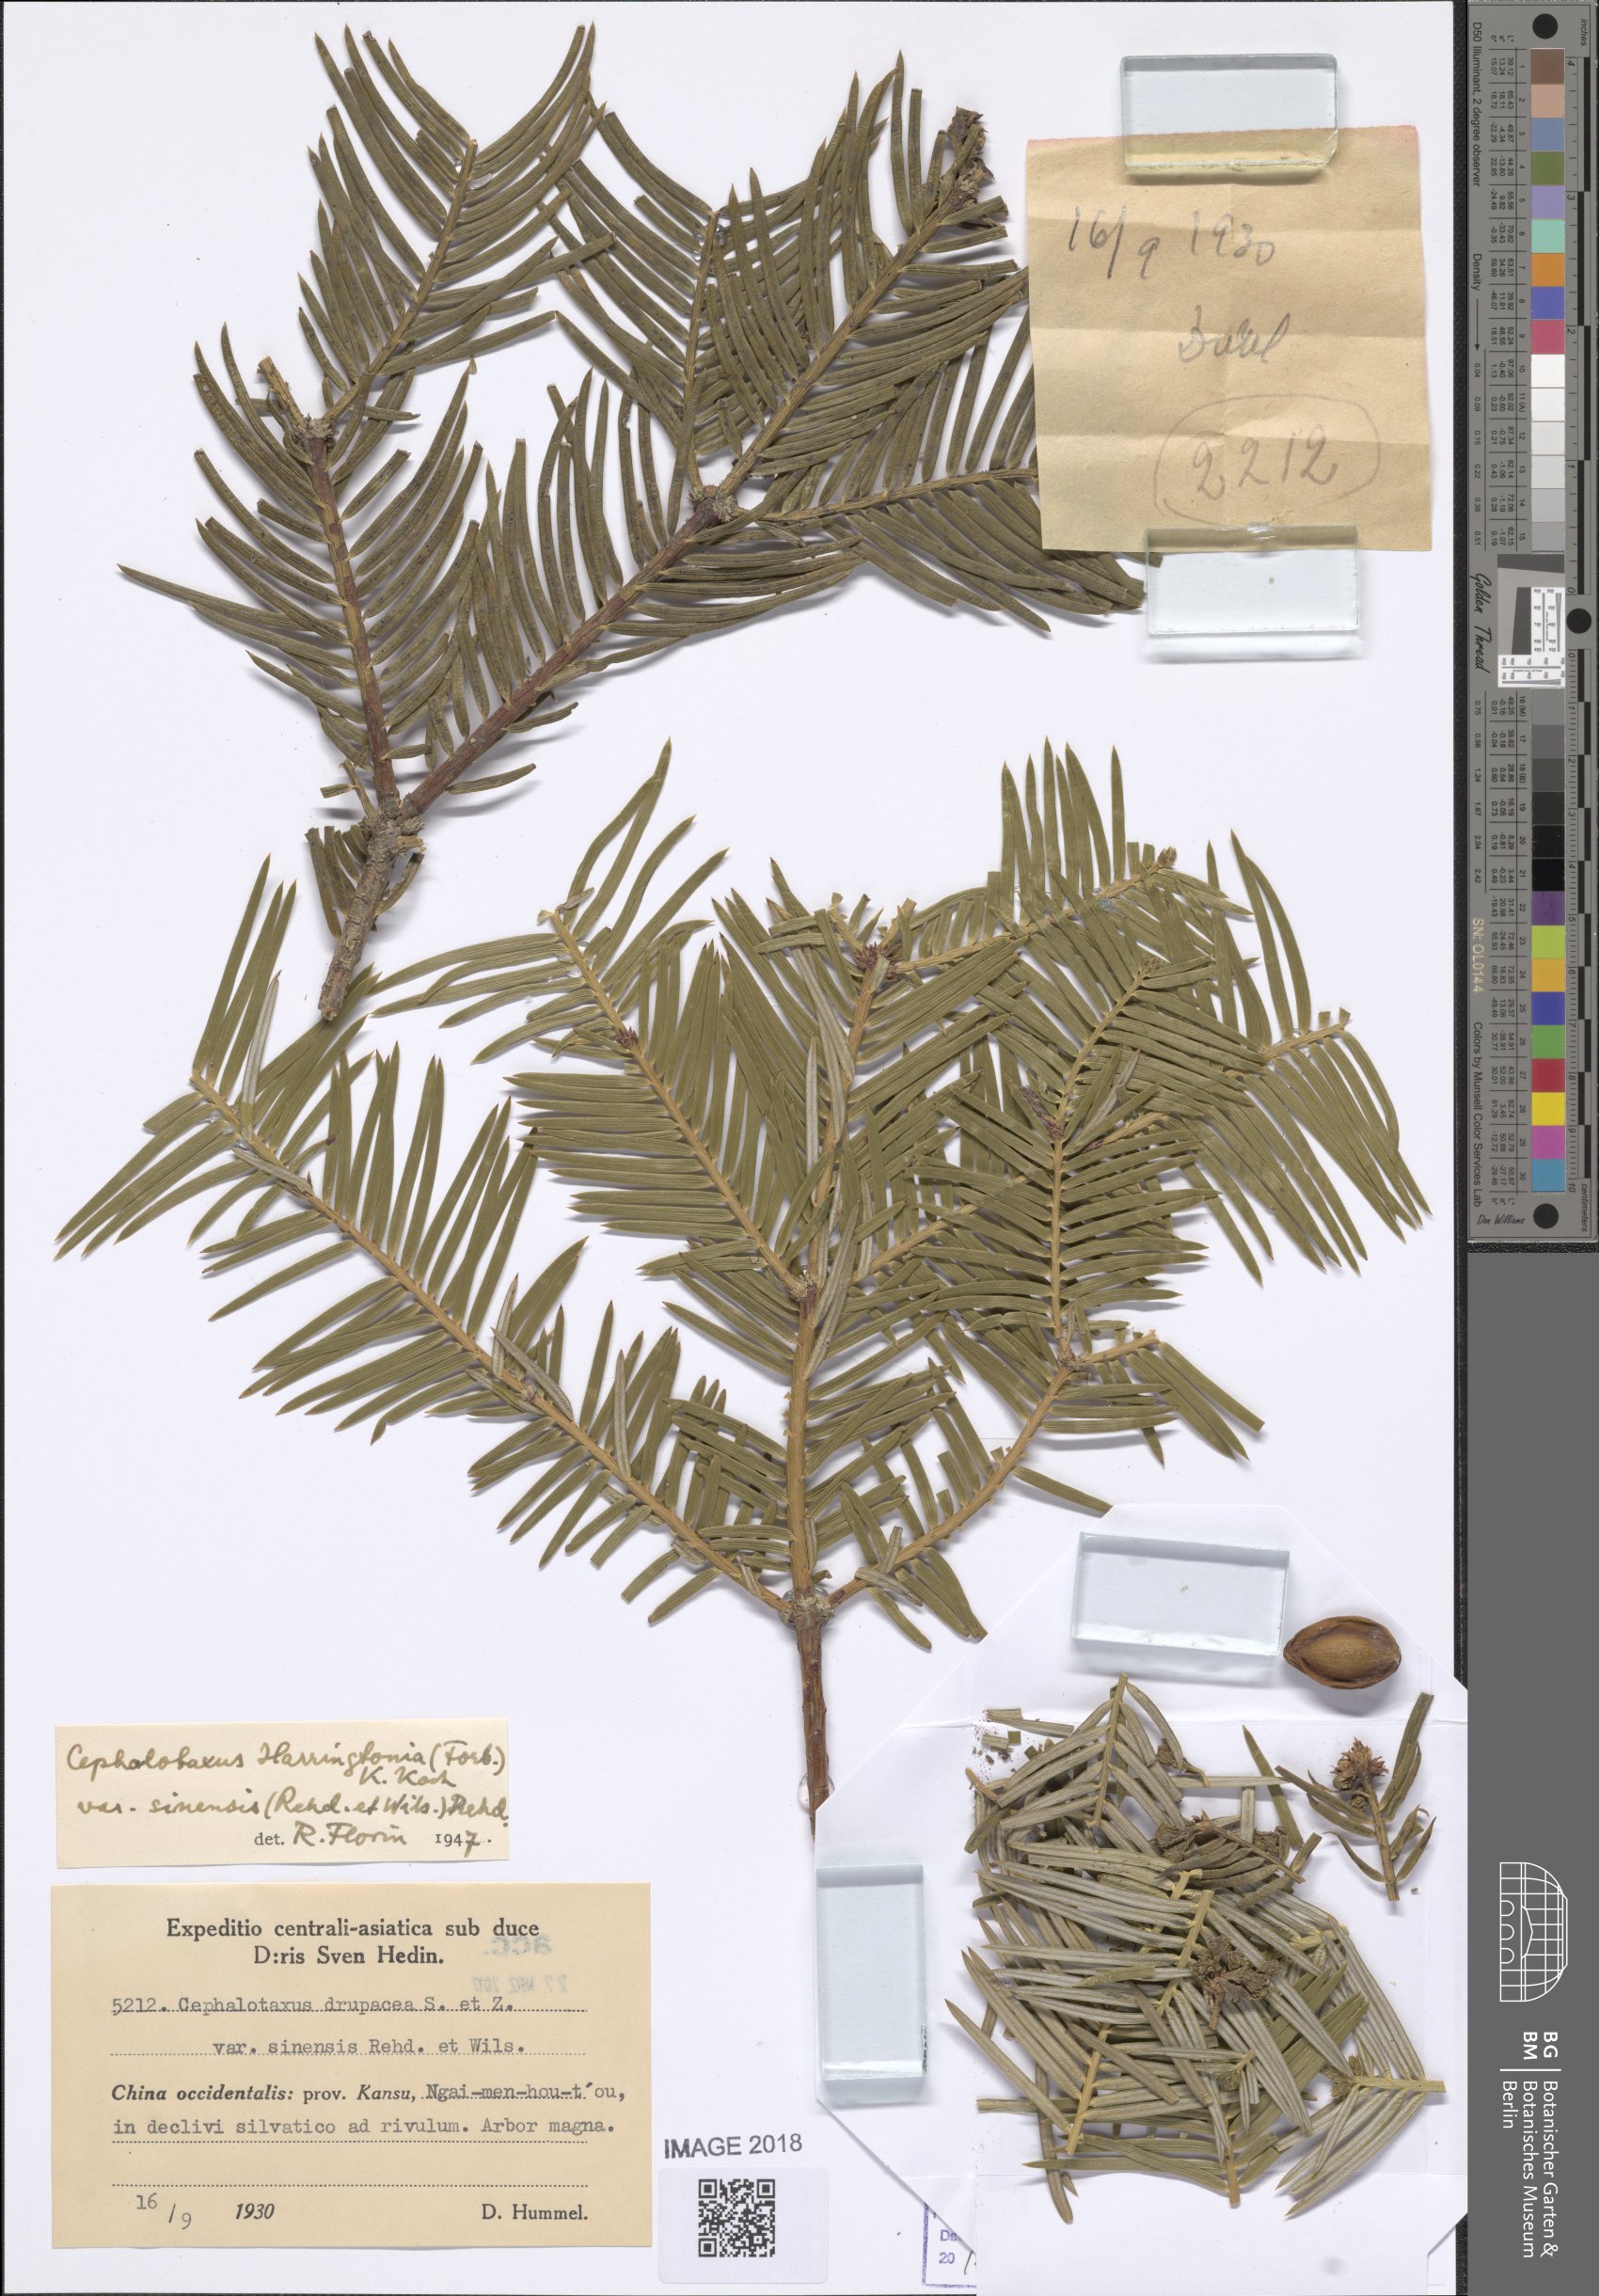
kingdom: Plantae
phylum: Tracheophyta
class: Pinopsida
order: Pinales
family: Cephalotaxaceae
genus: Cephalotaxus
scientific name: Cephalotaxus sinensis
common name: Chinese plum yew
